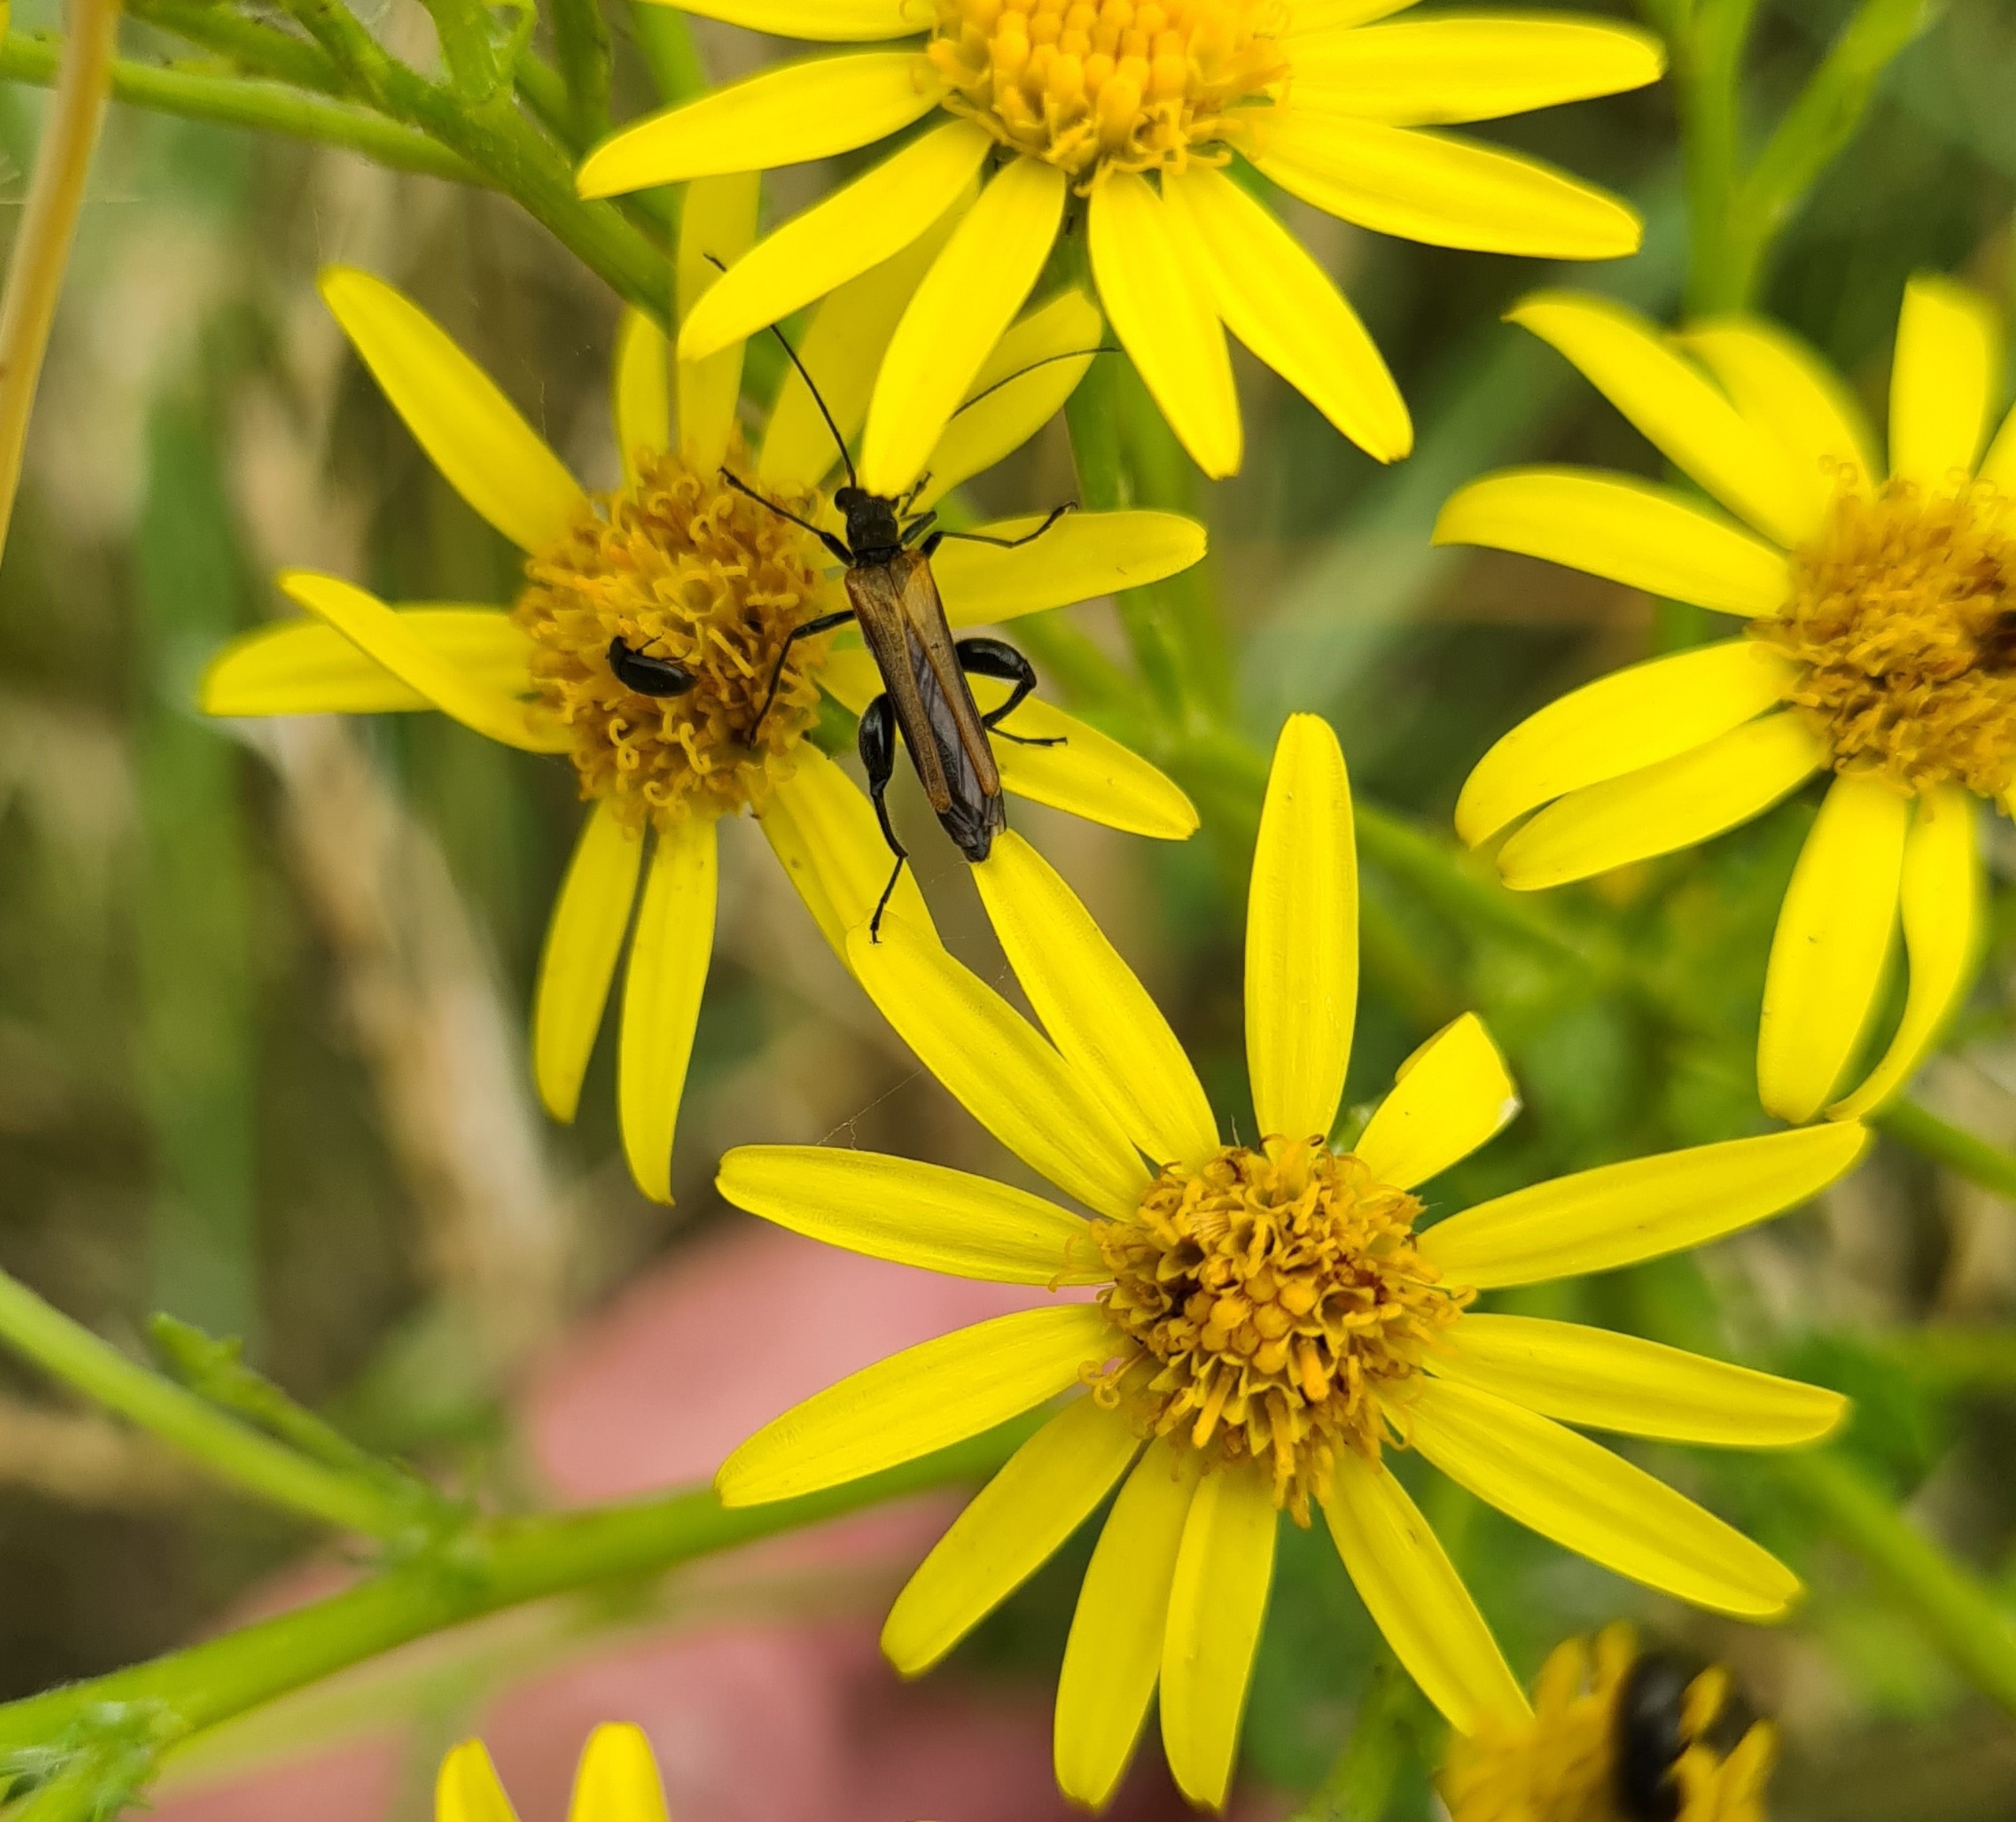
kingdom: Animalia
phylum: Arthropoda
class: Insecta
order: Coleoptera
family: Oedemeridae
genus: Oedemera
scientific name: Oedemera femorata
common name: Gulvinget solbille
